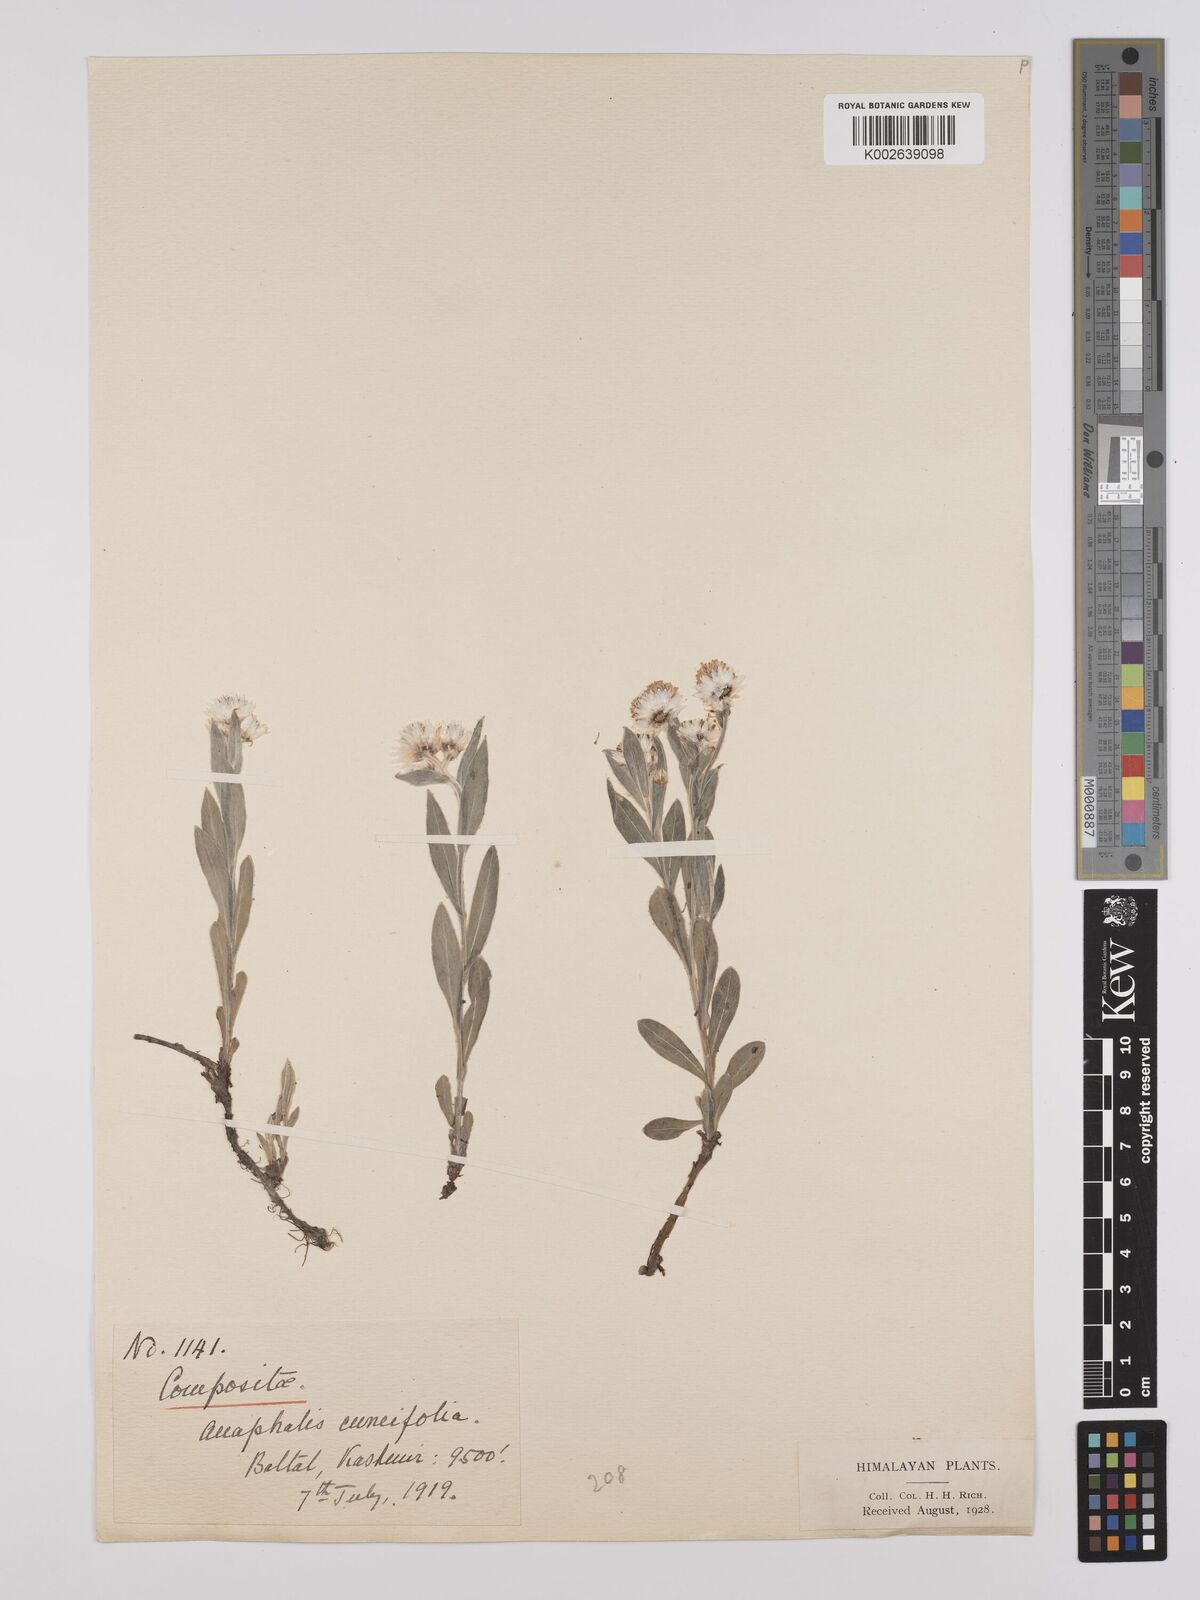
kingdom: Plantae
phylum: Tracheophyta
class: Magnoliopsida
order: Asterales
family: Asteraceae
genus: Anaphalioides
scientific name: Anaphalioides trinervis
